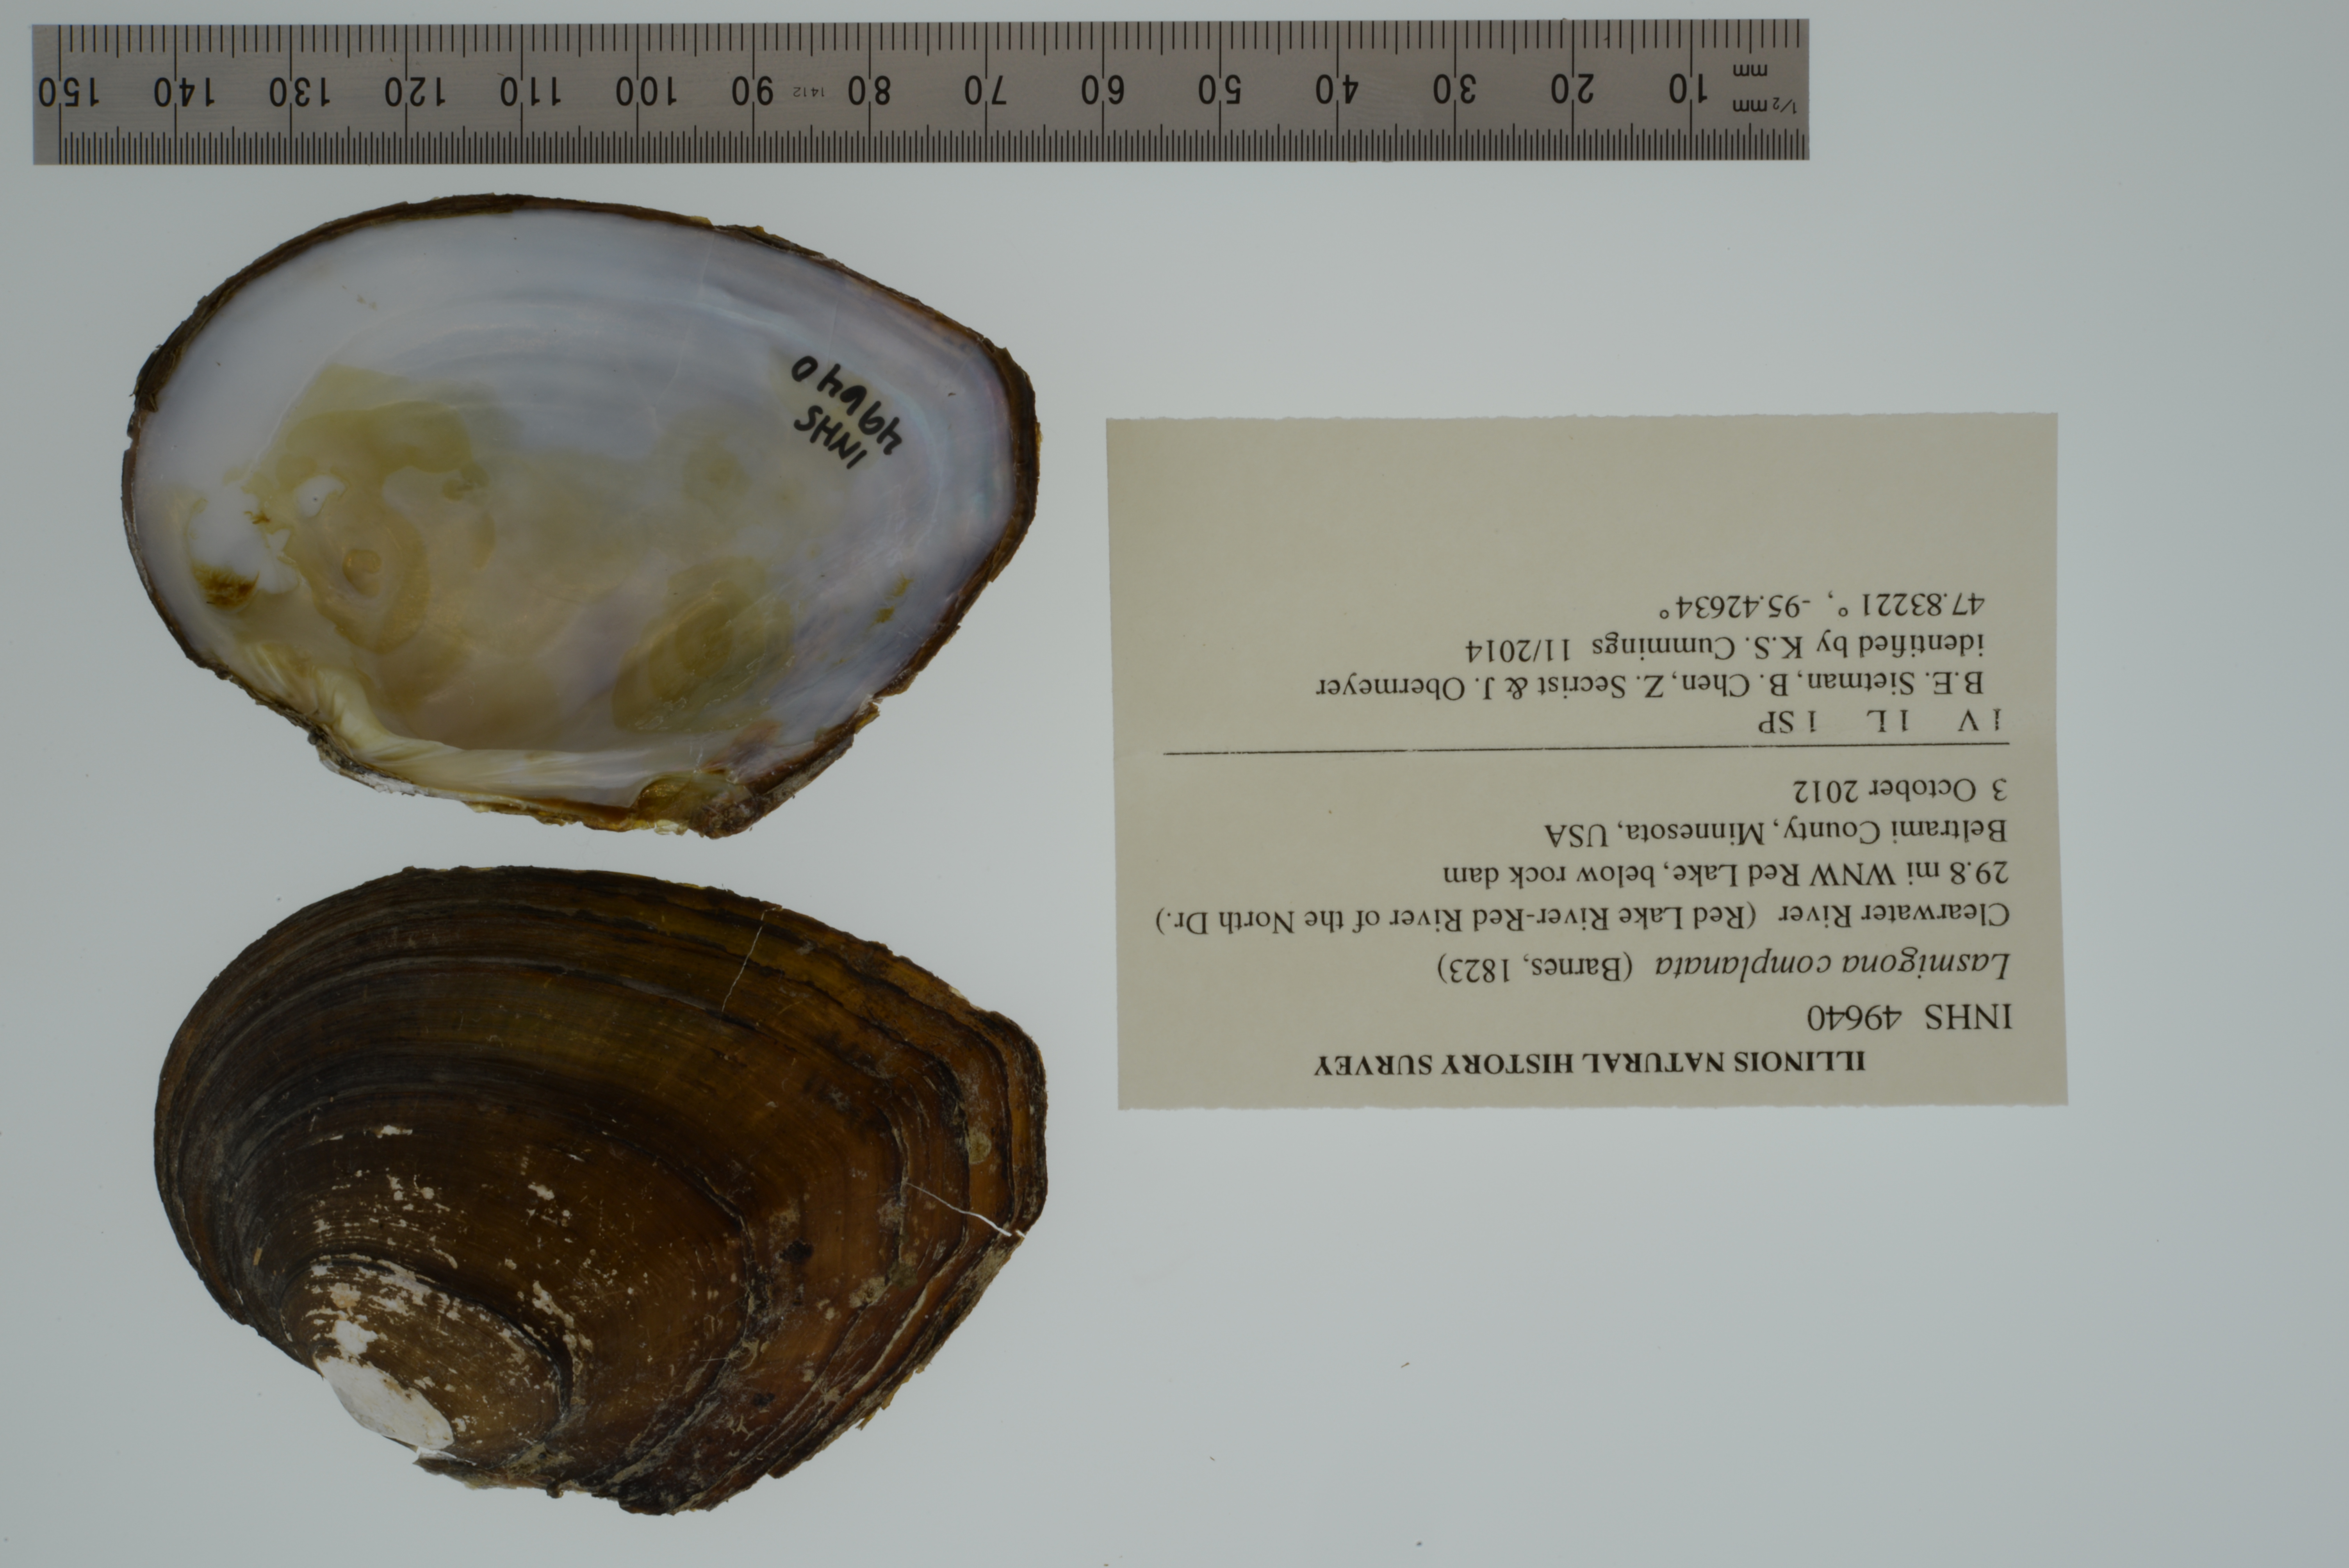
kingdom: Animalia
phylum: Mollusca
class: Bivalvia
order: Unionida
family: Unionidae
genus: Lasmigona
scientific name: Lasmigona complanata
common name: White heelsplitter
